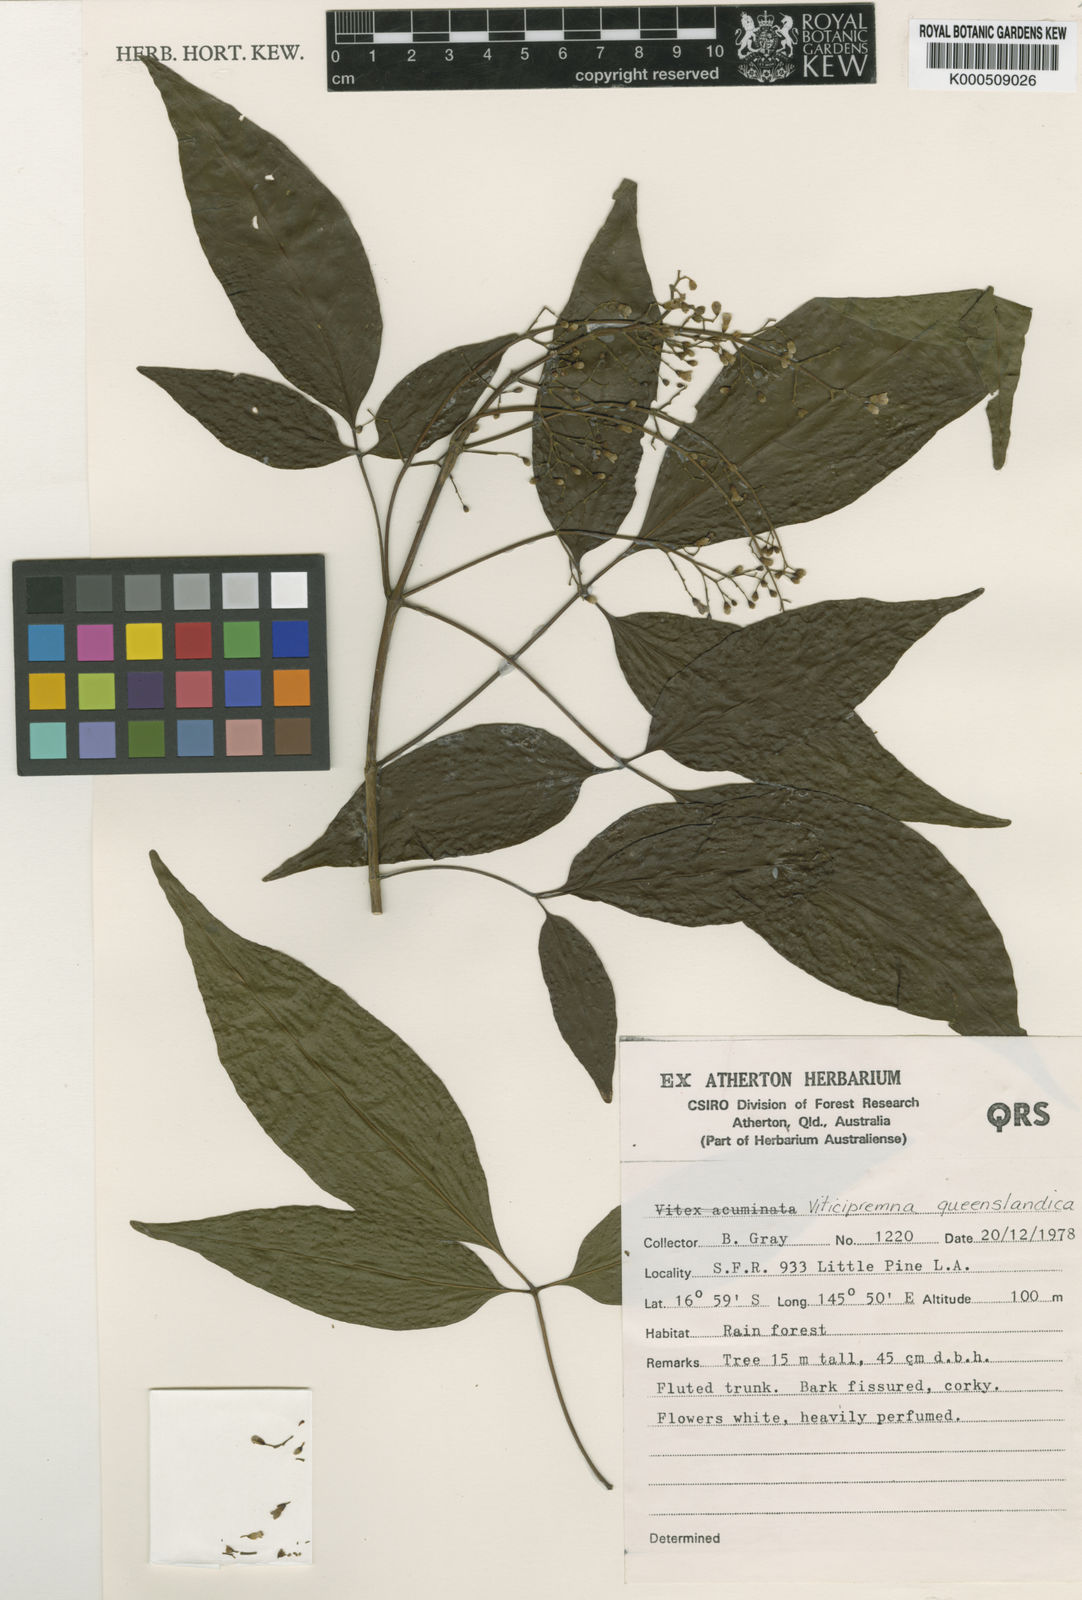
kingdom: Plantae
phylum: Tracheophyta
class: Magnoliopsida
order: Lamiales
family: Lamiaceae
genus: Vitex
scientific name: Vitex queenslandica
